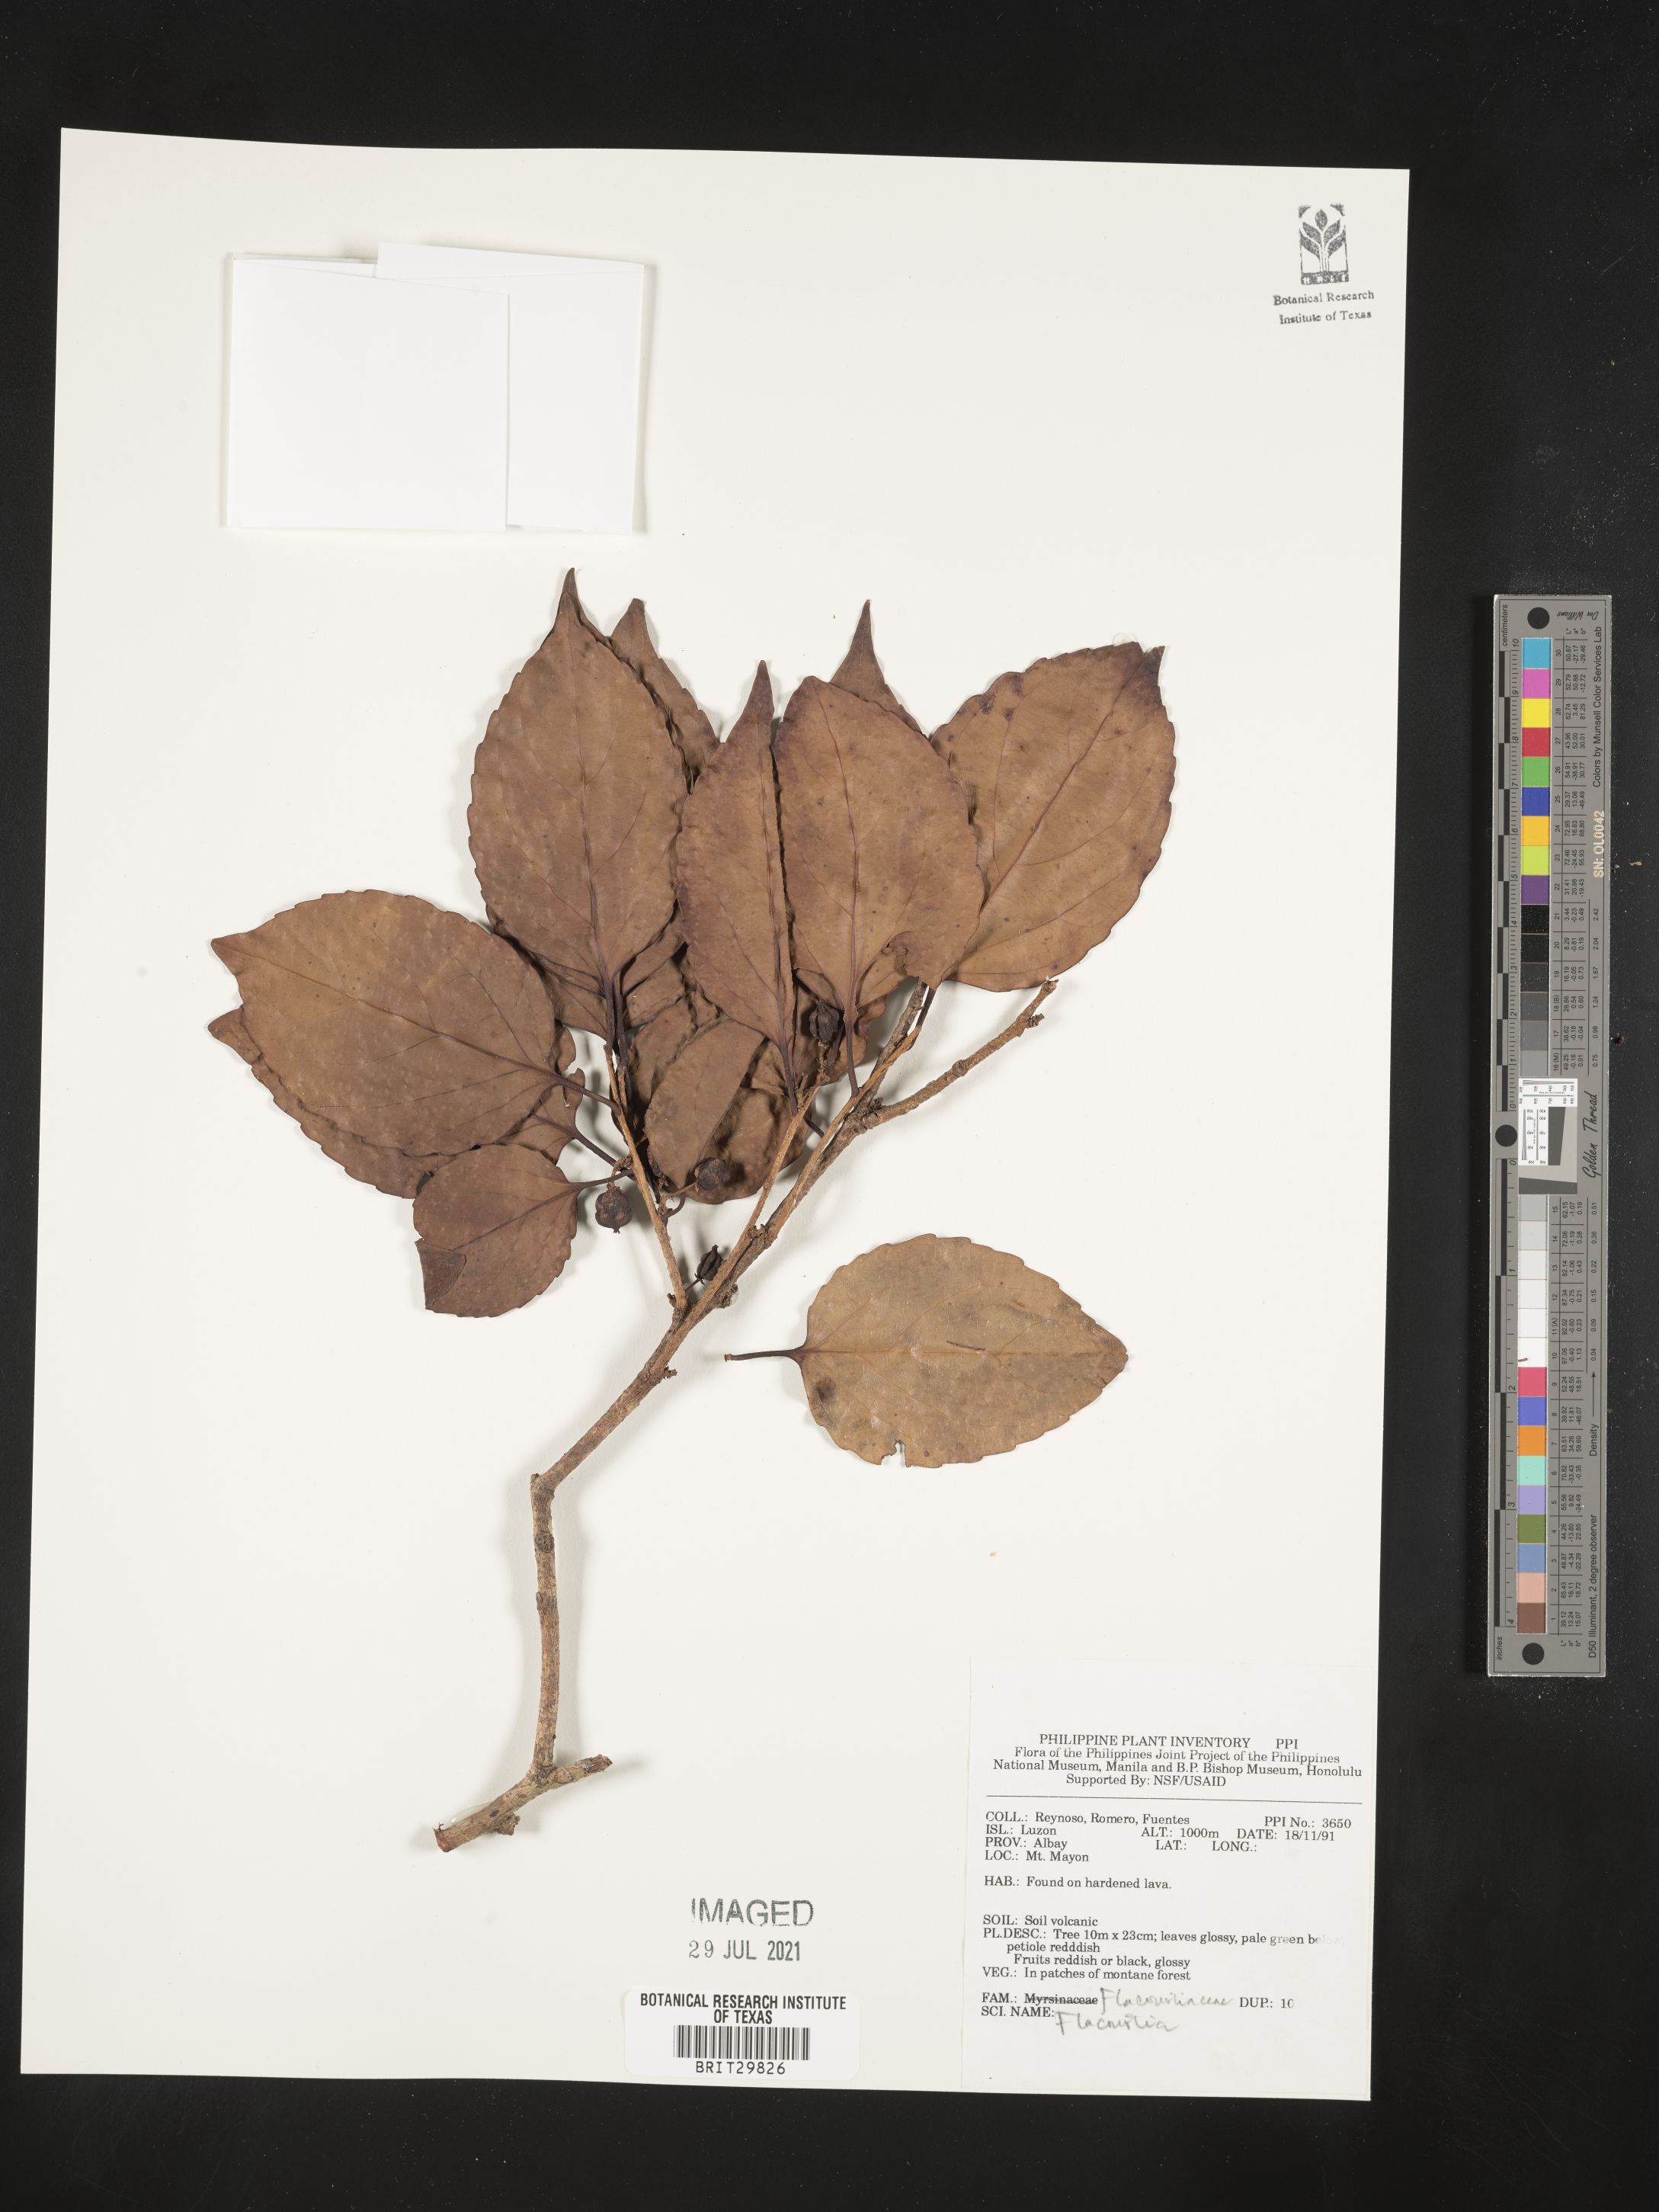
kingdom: Plantae
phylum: Tracheophyta
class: Magnoliopsida
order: Malpighiales
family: Salicaceae
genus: Flacourtia
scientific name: Flacourtia
